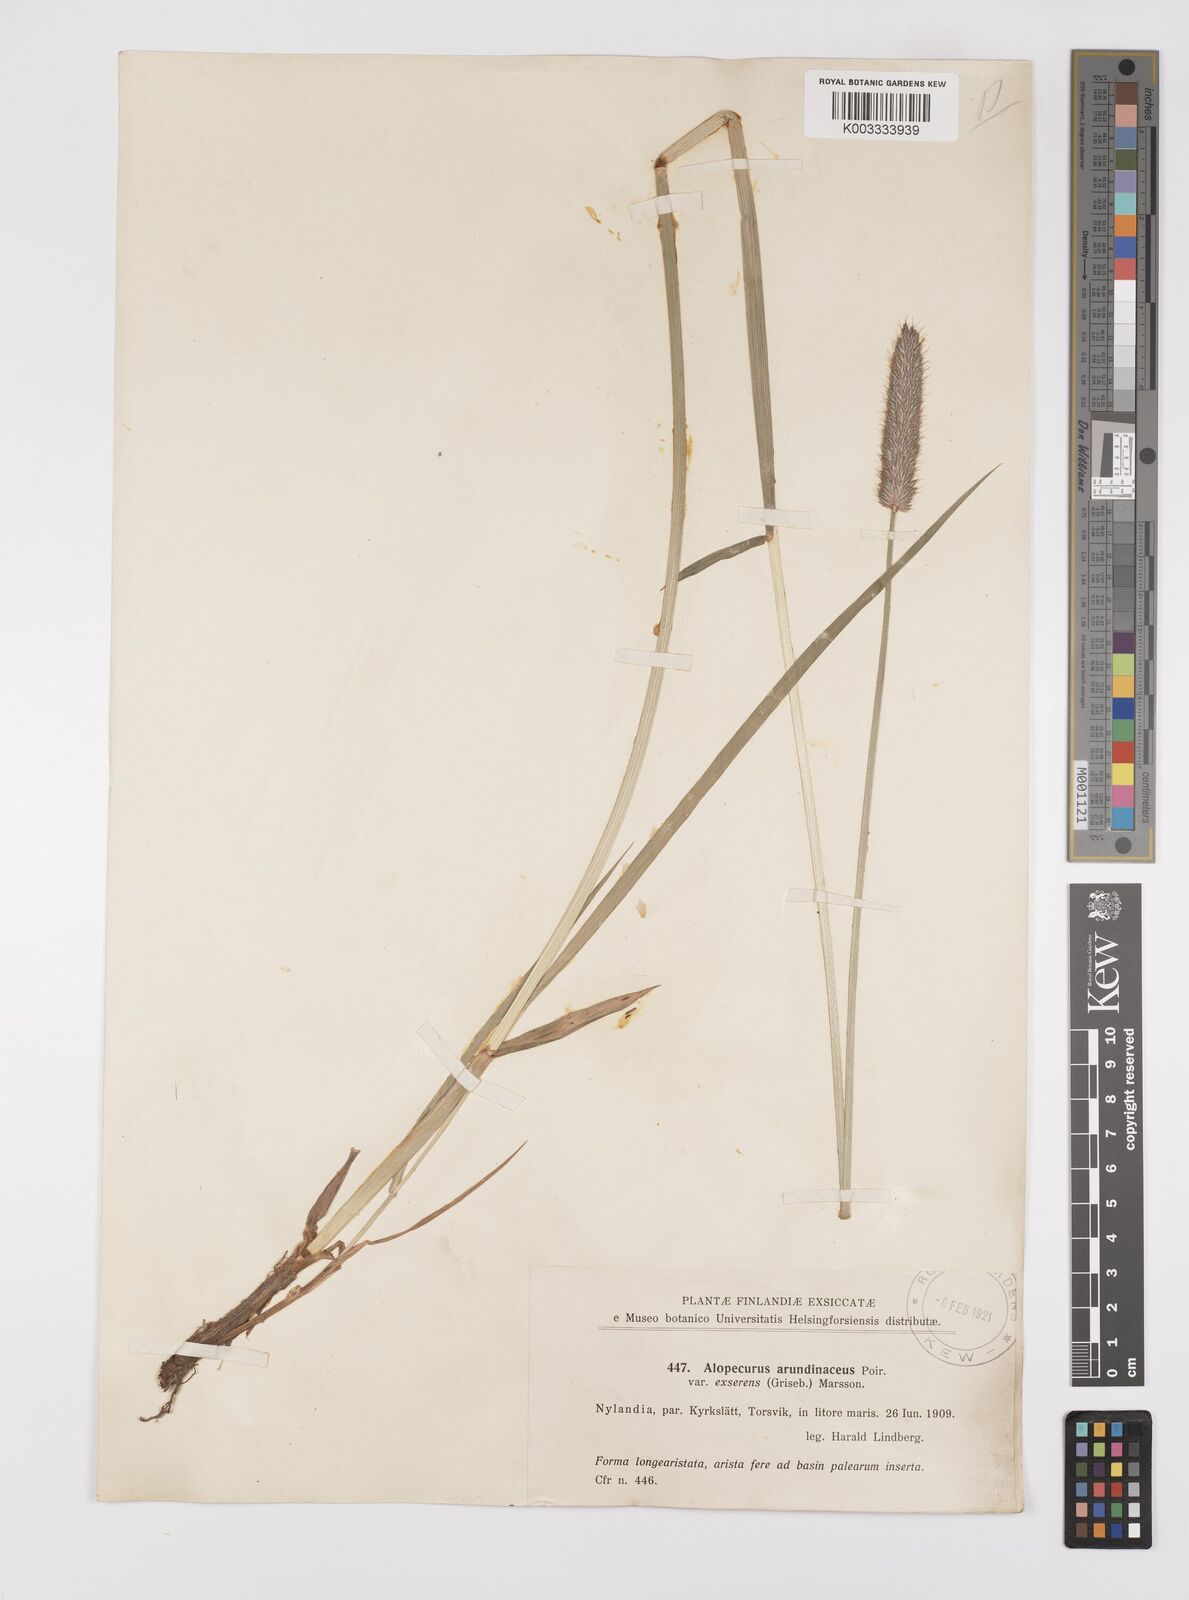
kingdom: Plantae
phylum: Tracheophyta
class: Liliopsida
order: Poales
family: Poaceae
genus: Alopecurus
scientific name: Alopecurus arundinaceus
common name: Creeping meadow foxtail
